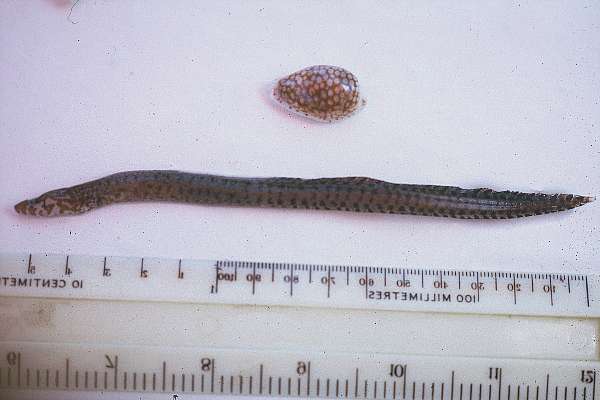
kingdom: Animalia
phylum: Chordata
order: Anguilliformes
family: Muraenidae
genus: Gymnothorax
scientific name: Gymnothorax zonipectis
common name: Bar-tail moray
